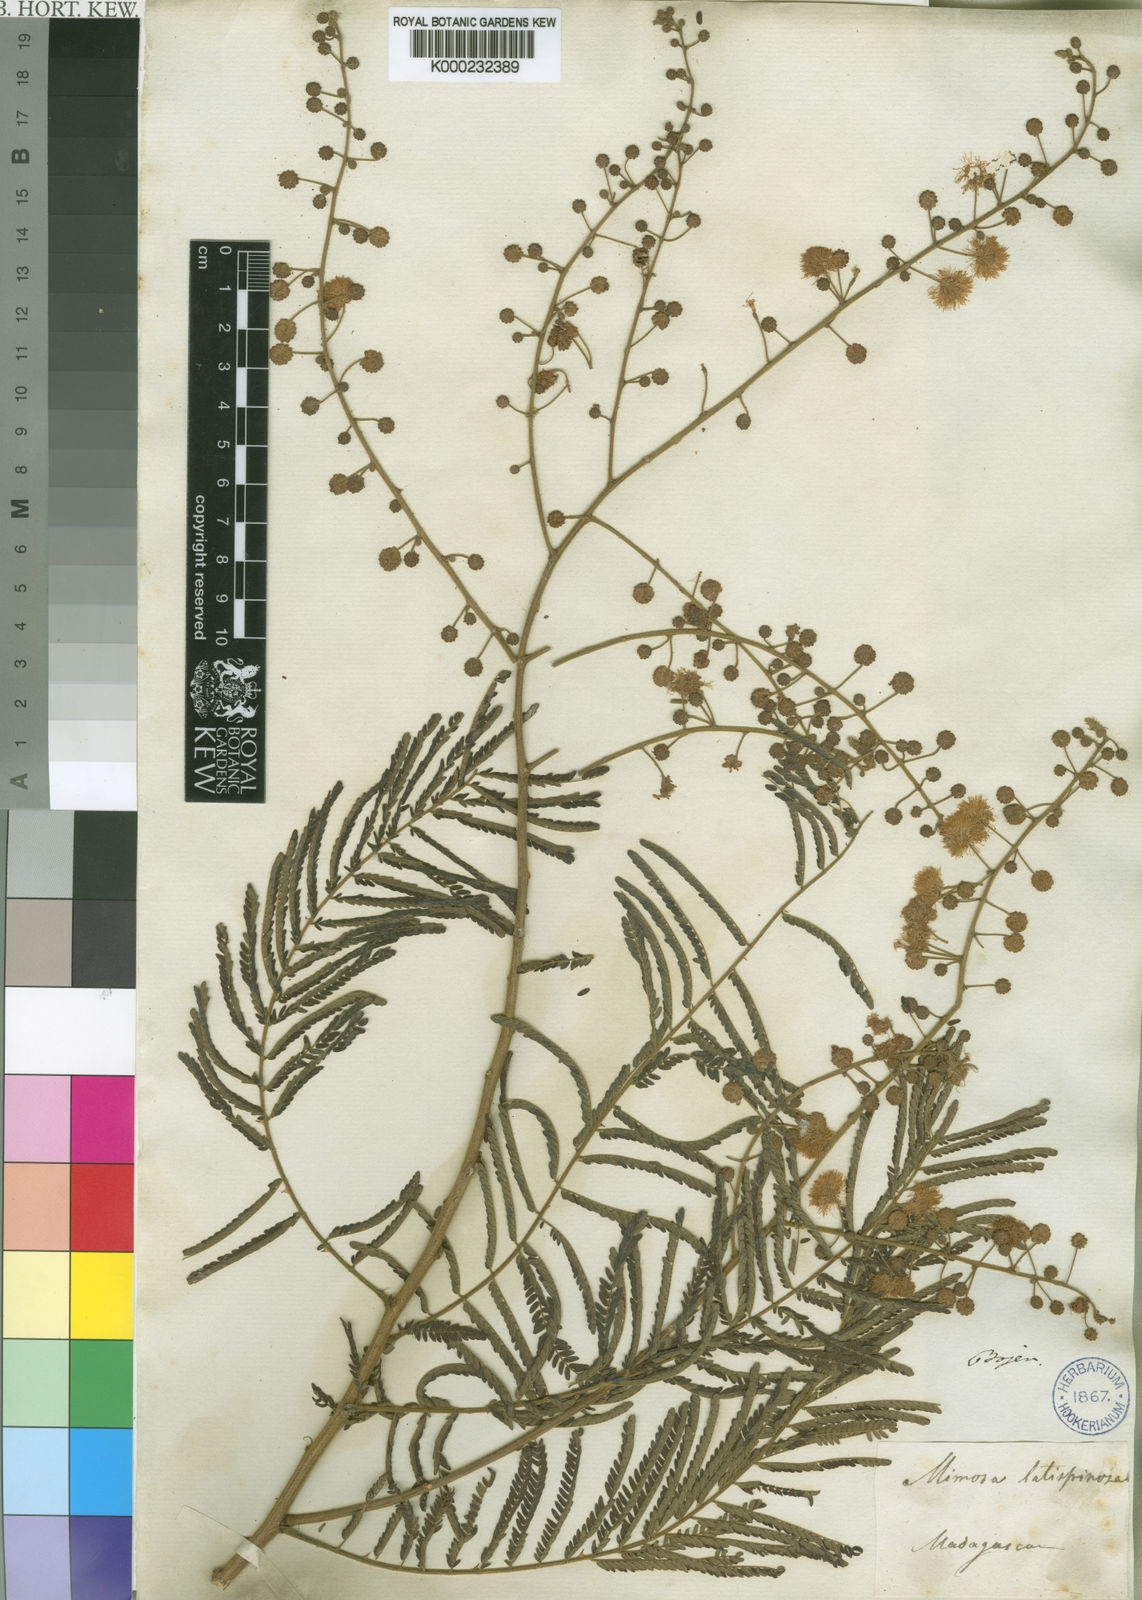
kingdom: Plantae
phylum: Tracheophyta
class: Magnoliopsida
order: Fabales
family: Fabaceae
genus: Mimosa
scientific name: Mimosa latispinosa
